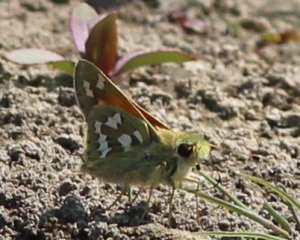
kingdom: Animalia
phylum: Arthropoda
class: Insecta
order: Lepidoptera
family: Hesperiidae
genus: Hesperia
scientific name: Hesperia juba
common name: Juba Skipper
